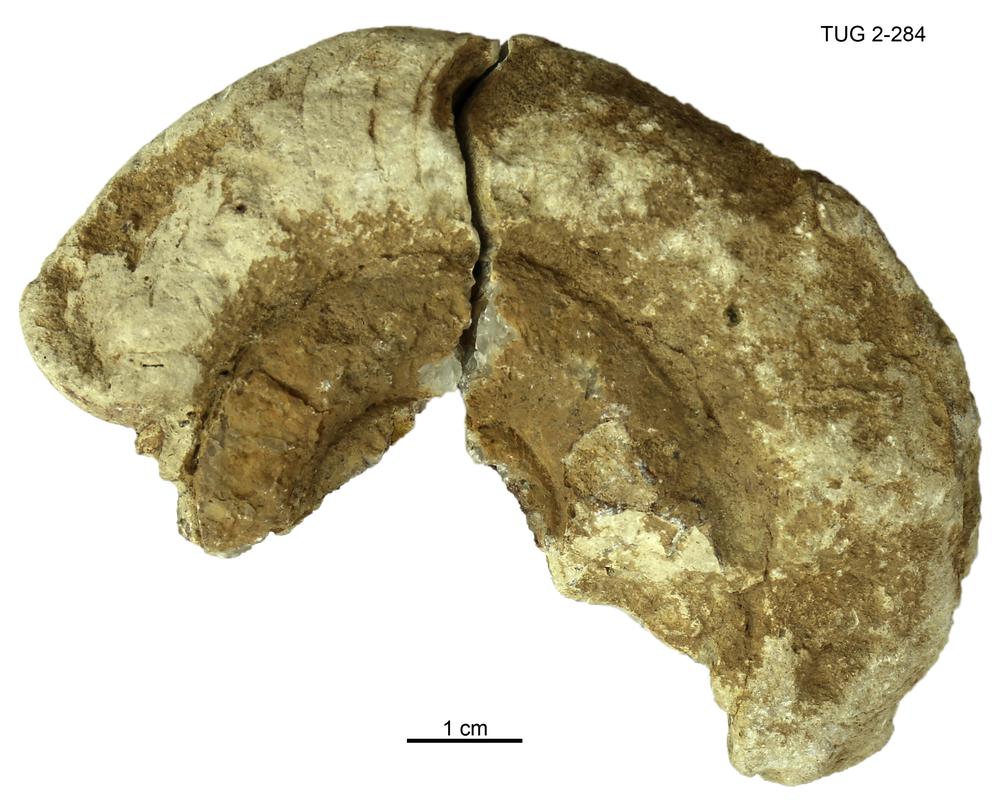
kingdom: Animalia
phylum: Mollusca
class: Cephalopoda
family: Trocholitidae
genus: Schroederoceras
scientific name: Schroederoceras
